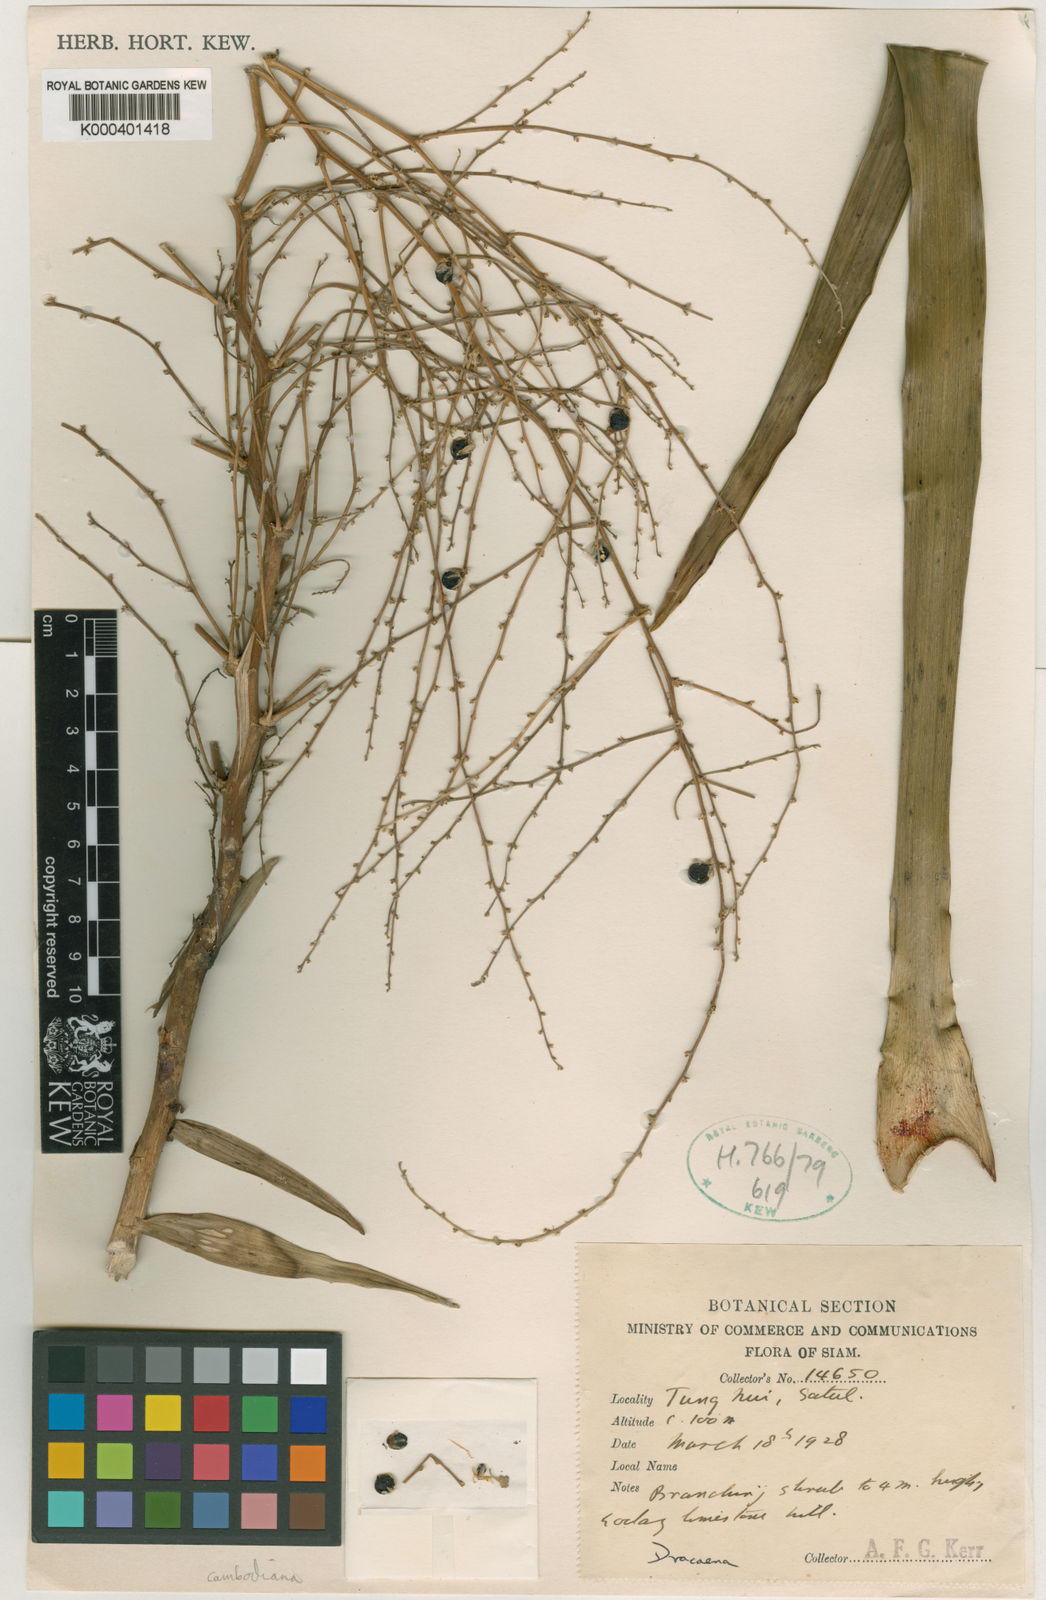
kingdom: Plantae
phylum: Tracheophyta
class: Liliopsida
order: Asparagales
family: Asparagaceae
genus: Dracaena
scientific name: Dracaena cambodiana
